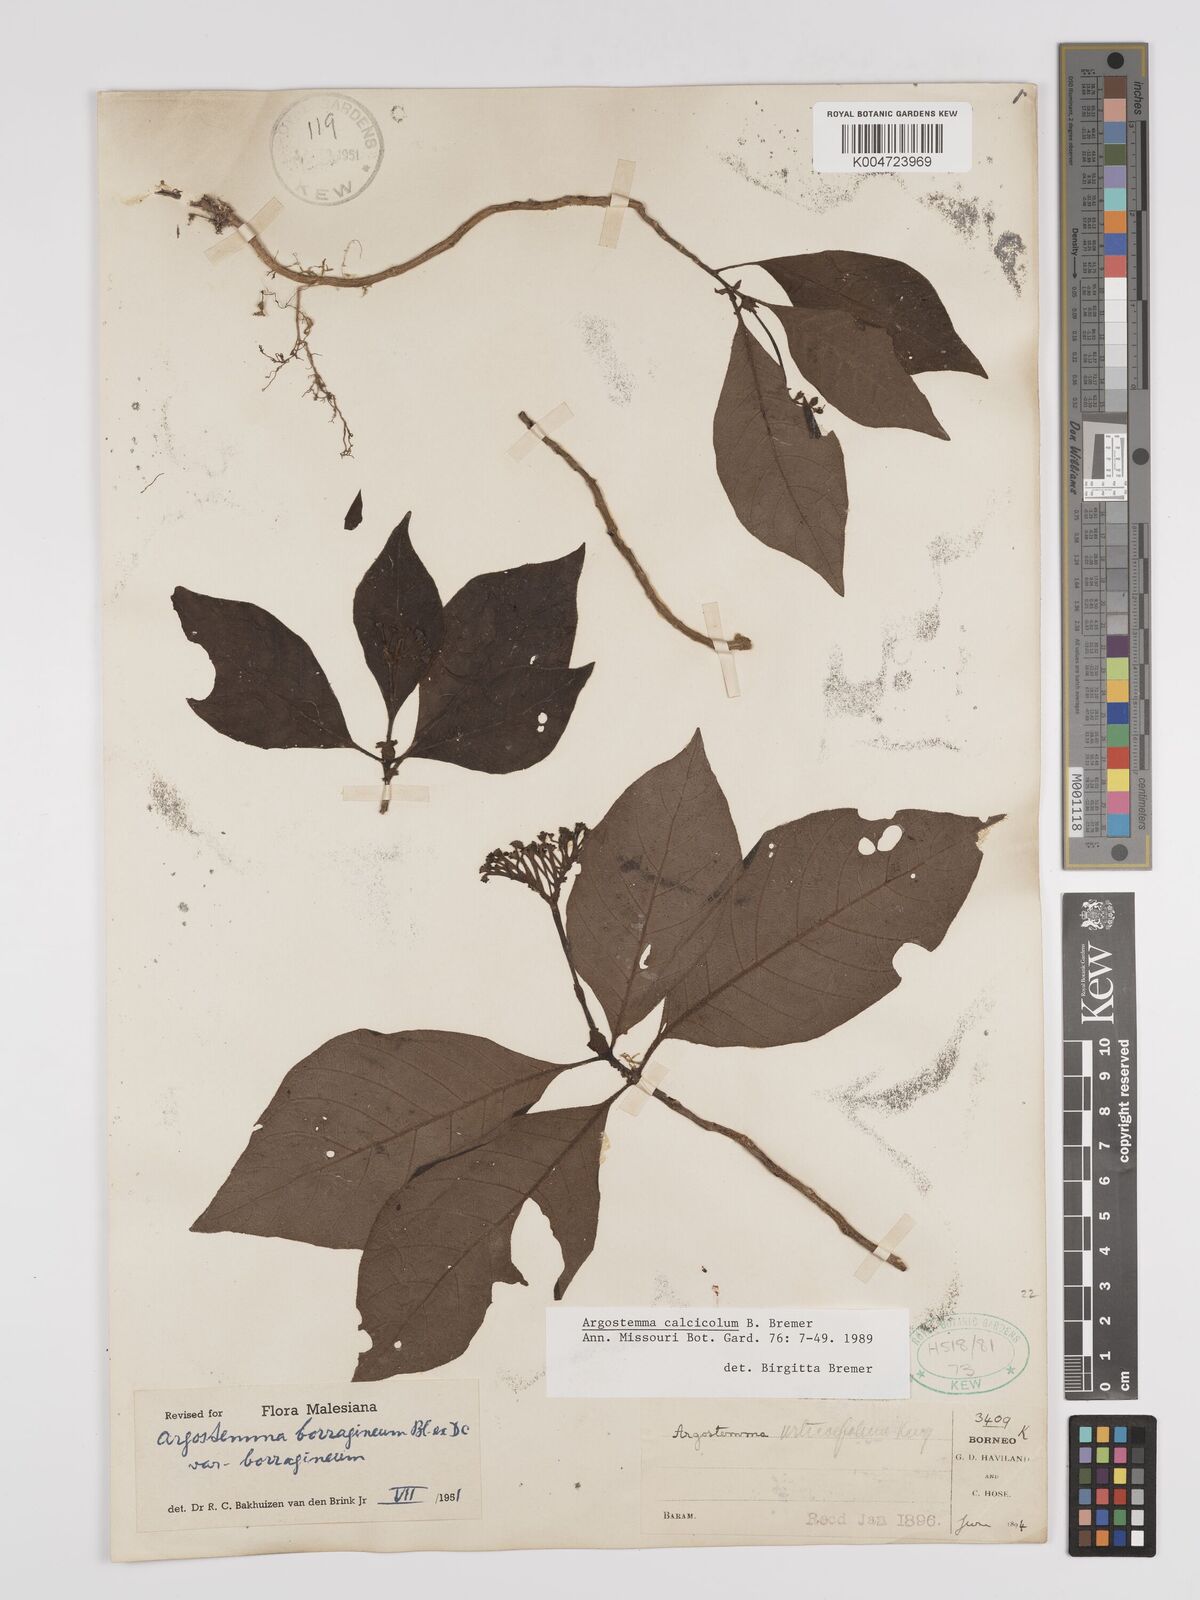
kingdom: Plantae
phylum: Tracheophyta
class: Magnoliopsida
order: Gentianales
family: Rubiaceae
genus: Argostemma
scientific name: Argostemma calcicola
